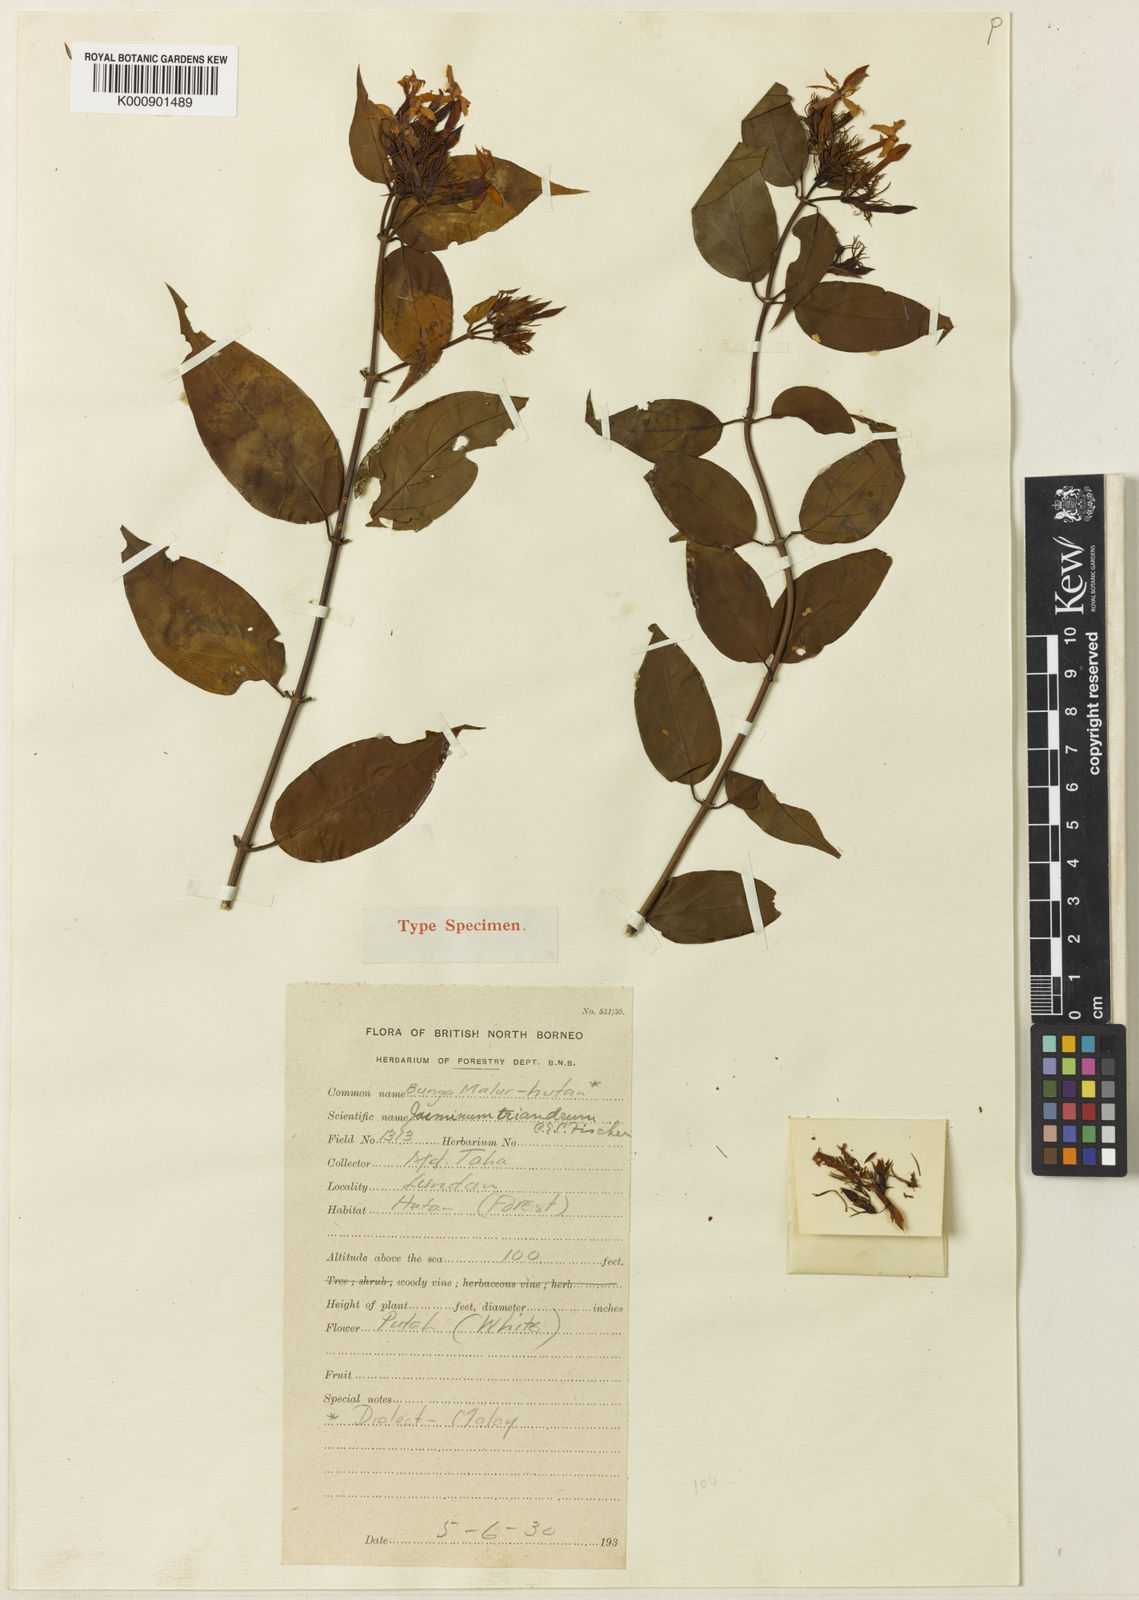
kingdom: Plantae
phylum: Tracheophyta
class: Magnoliopsida
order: Lamiales
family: Oleaceae
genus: Jasminum
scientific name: Jasminum elongatum
